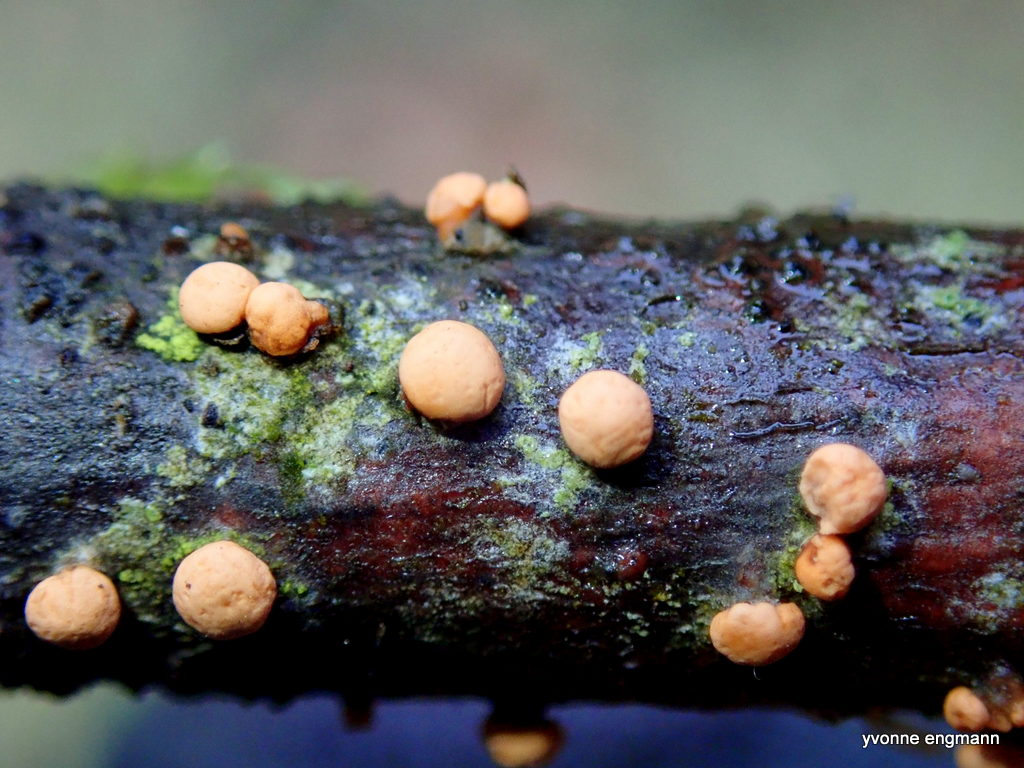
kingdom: Fungi
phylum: Ascomycota
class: Sordariomycetes
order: Hypocreales
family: Nectriaceae
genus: Nectria
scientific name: Nectria cinnabarina
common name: almindelig cinnobersvamp
